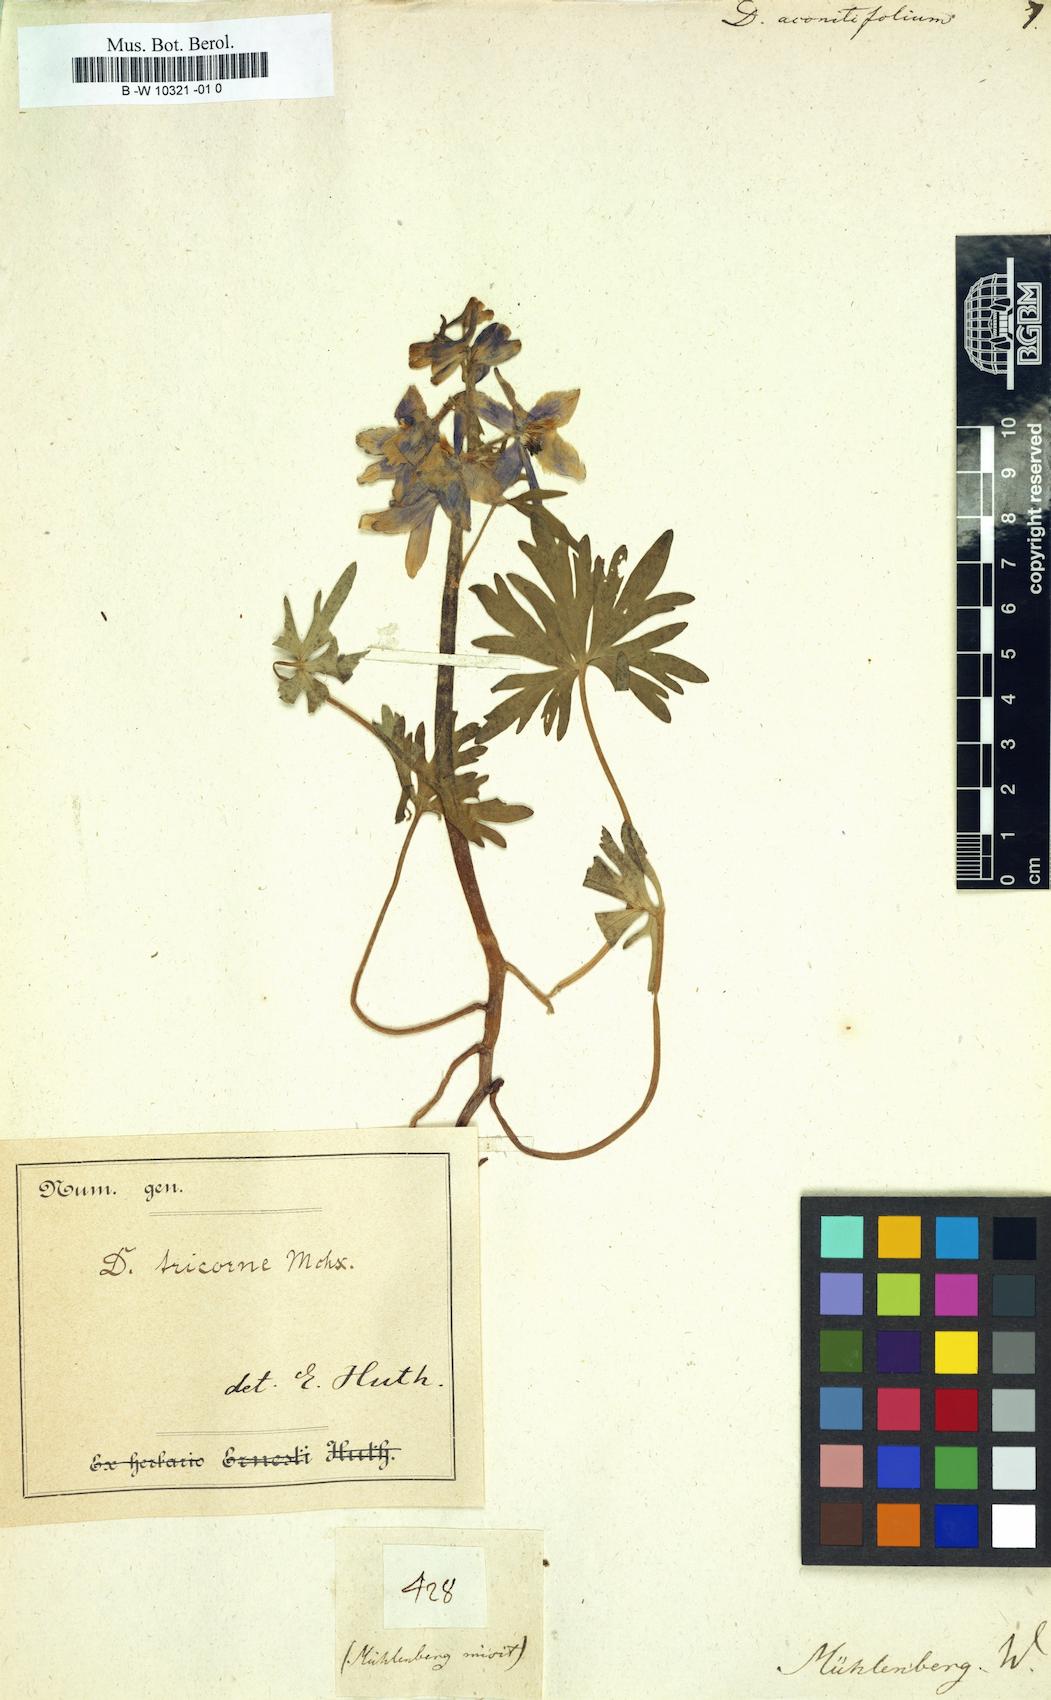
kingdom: Plantae
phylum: Tracheophyta
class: Magnoliopsida
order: Ranunculales
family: Ranunculaceae
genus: Delphinium
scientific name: Delphinium tricorne
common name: Dwarf larkspur
